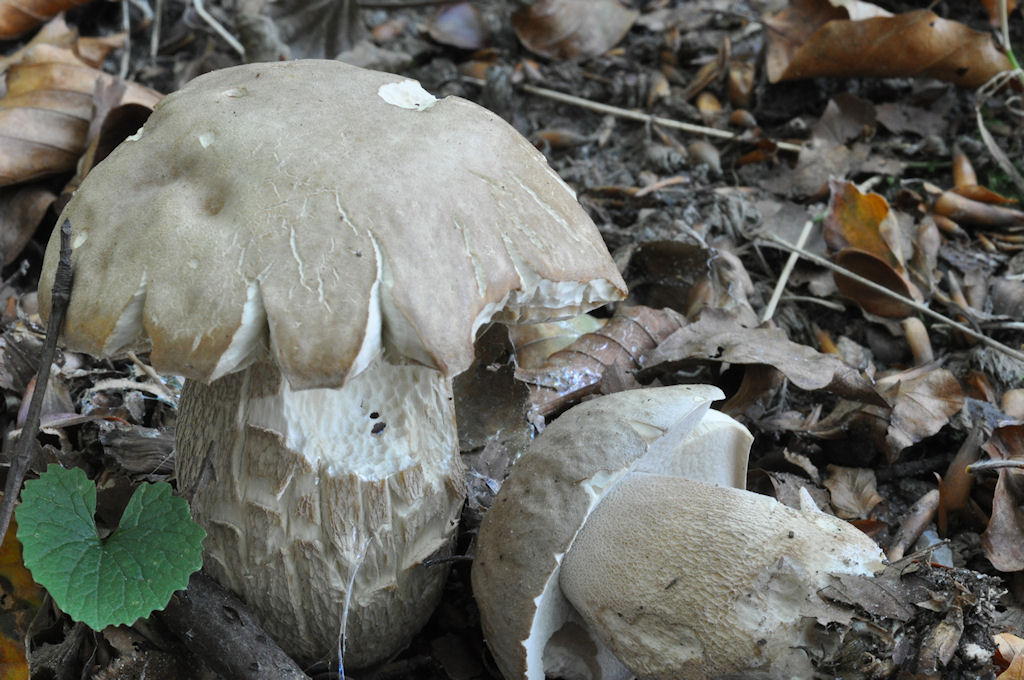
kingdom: Fungi
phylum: Basidiomycota
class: Agaricomycetes
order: Boletales
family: Boletaceae
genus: Boletus
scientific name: Boletus reticulatus
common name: sommer-rørhat
